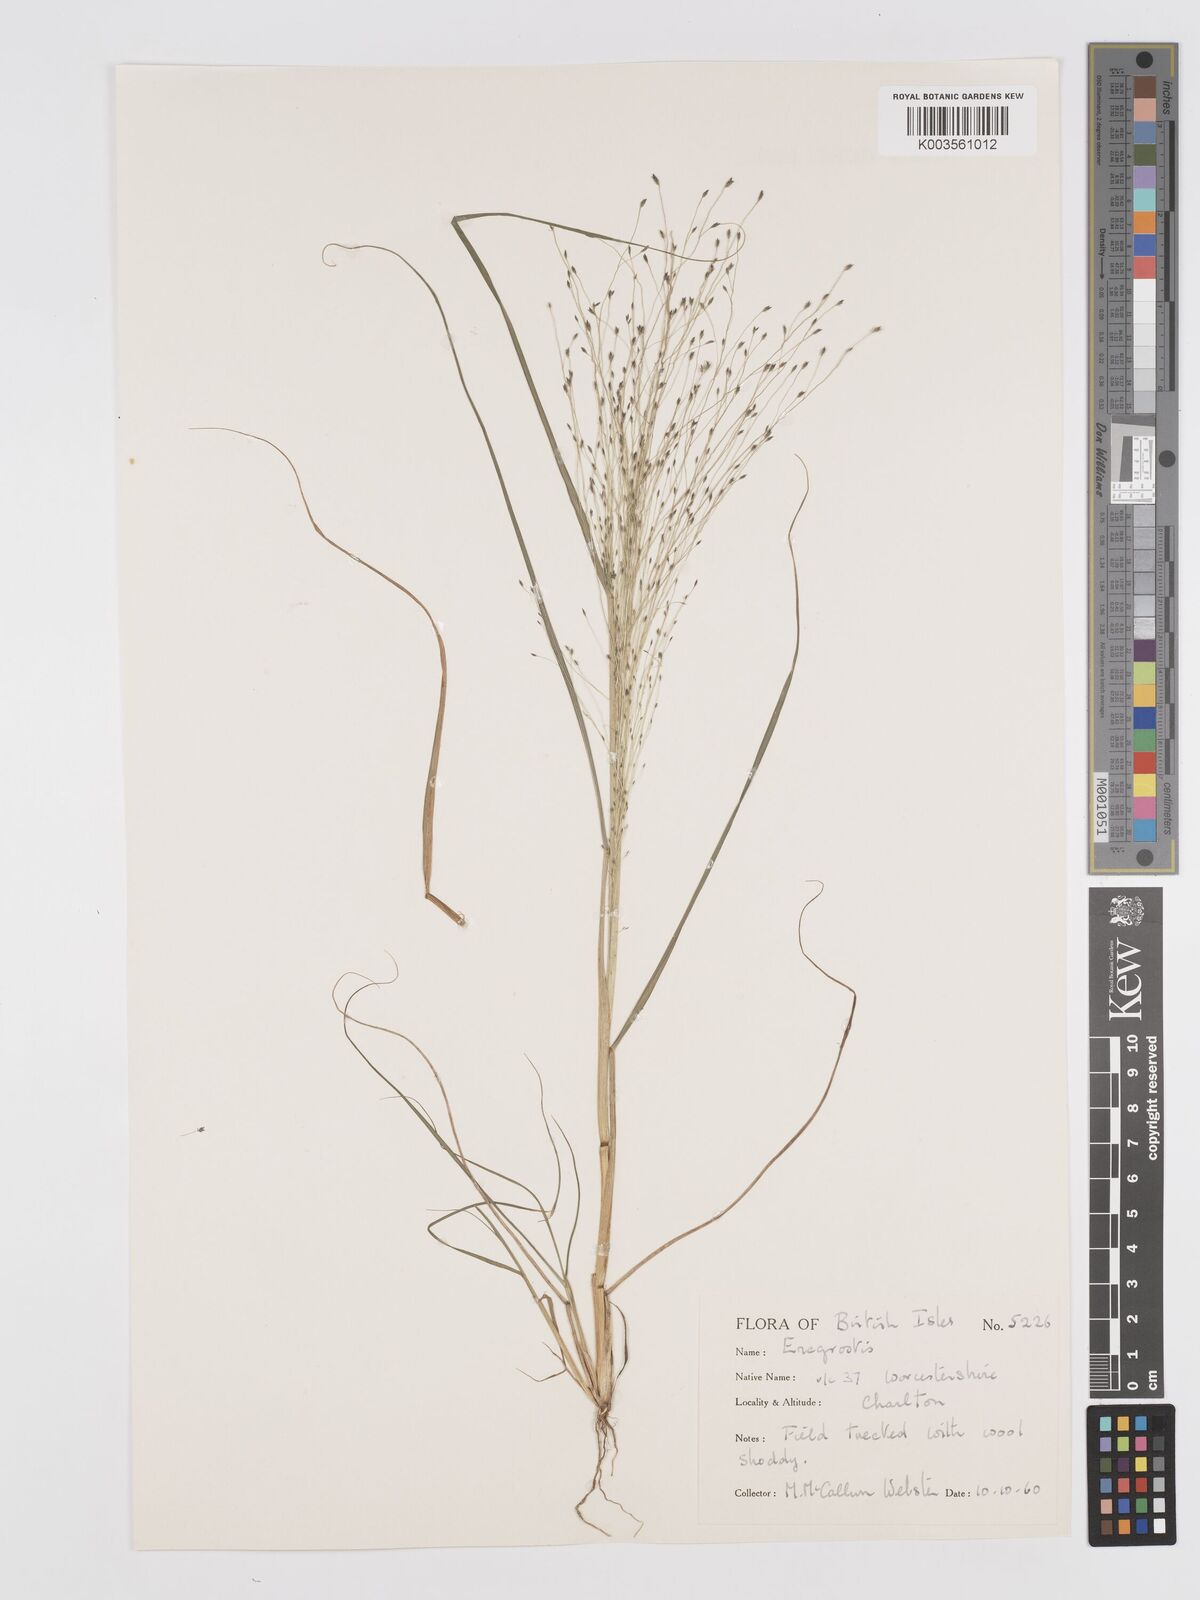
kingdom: Plantae
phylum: Tracheophyta
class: Liliopsida
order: Poales
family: Poaceae
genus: Eragrostis
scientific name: Eragrostis
